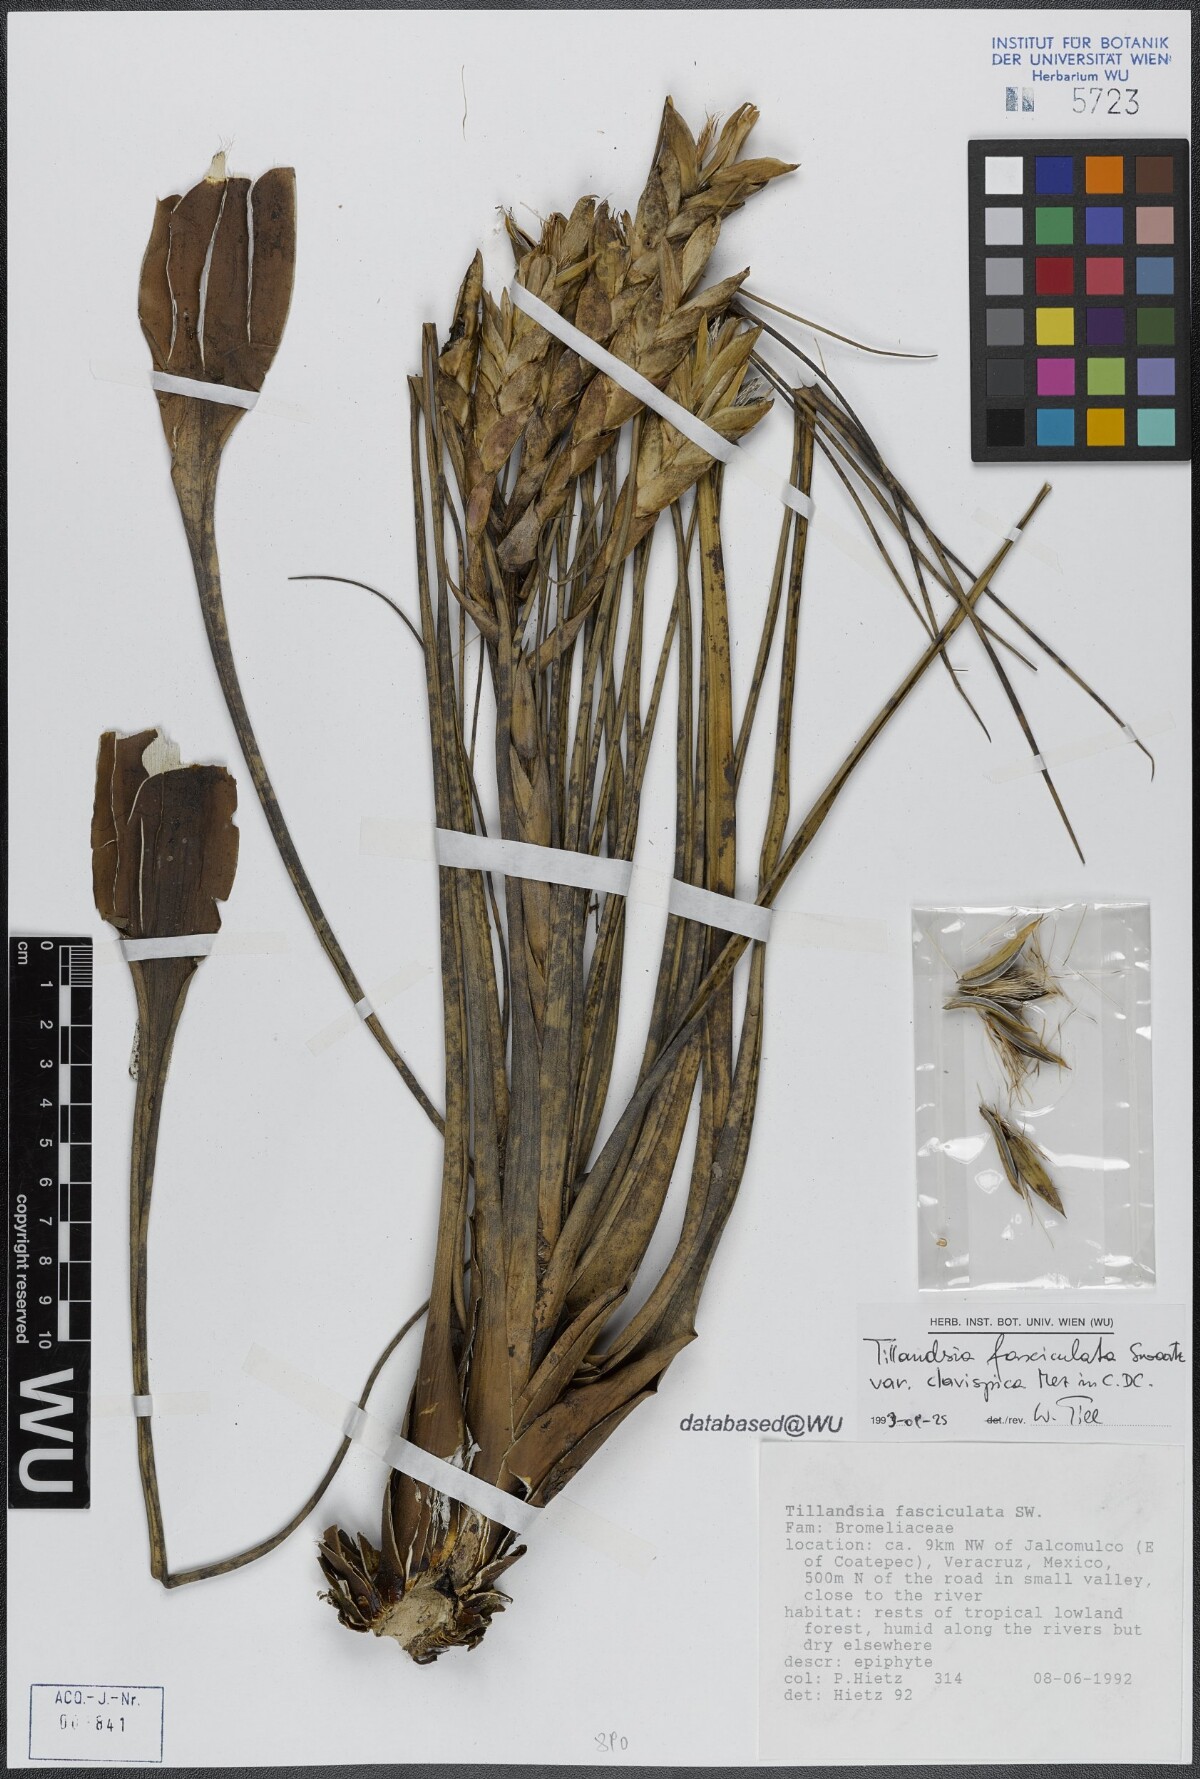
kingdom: Plantae
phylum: Tracheophyta
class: Liliopsida
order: Poales
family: Bromeliaceae
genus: Tillandsia
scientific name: Tillandsia fasciculata
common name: Giant airplant
